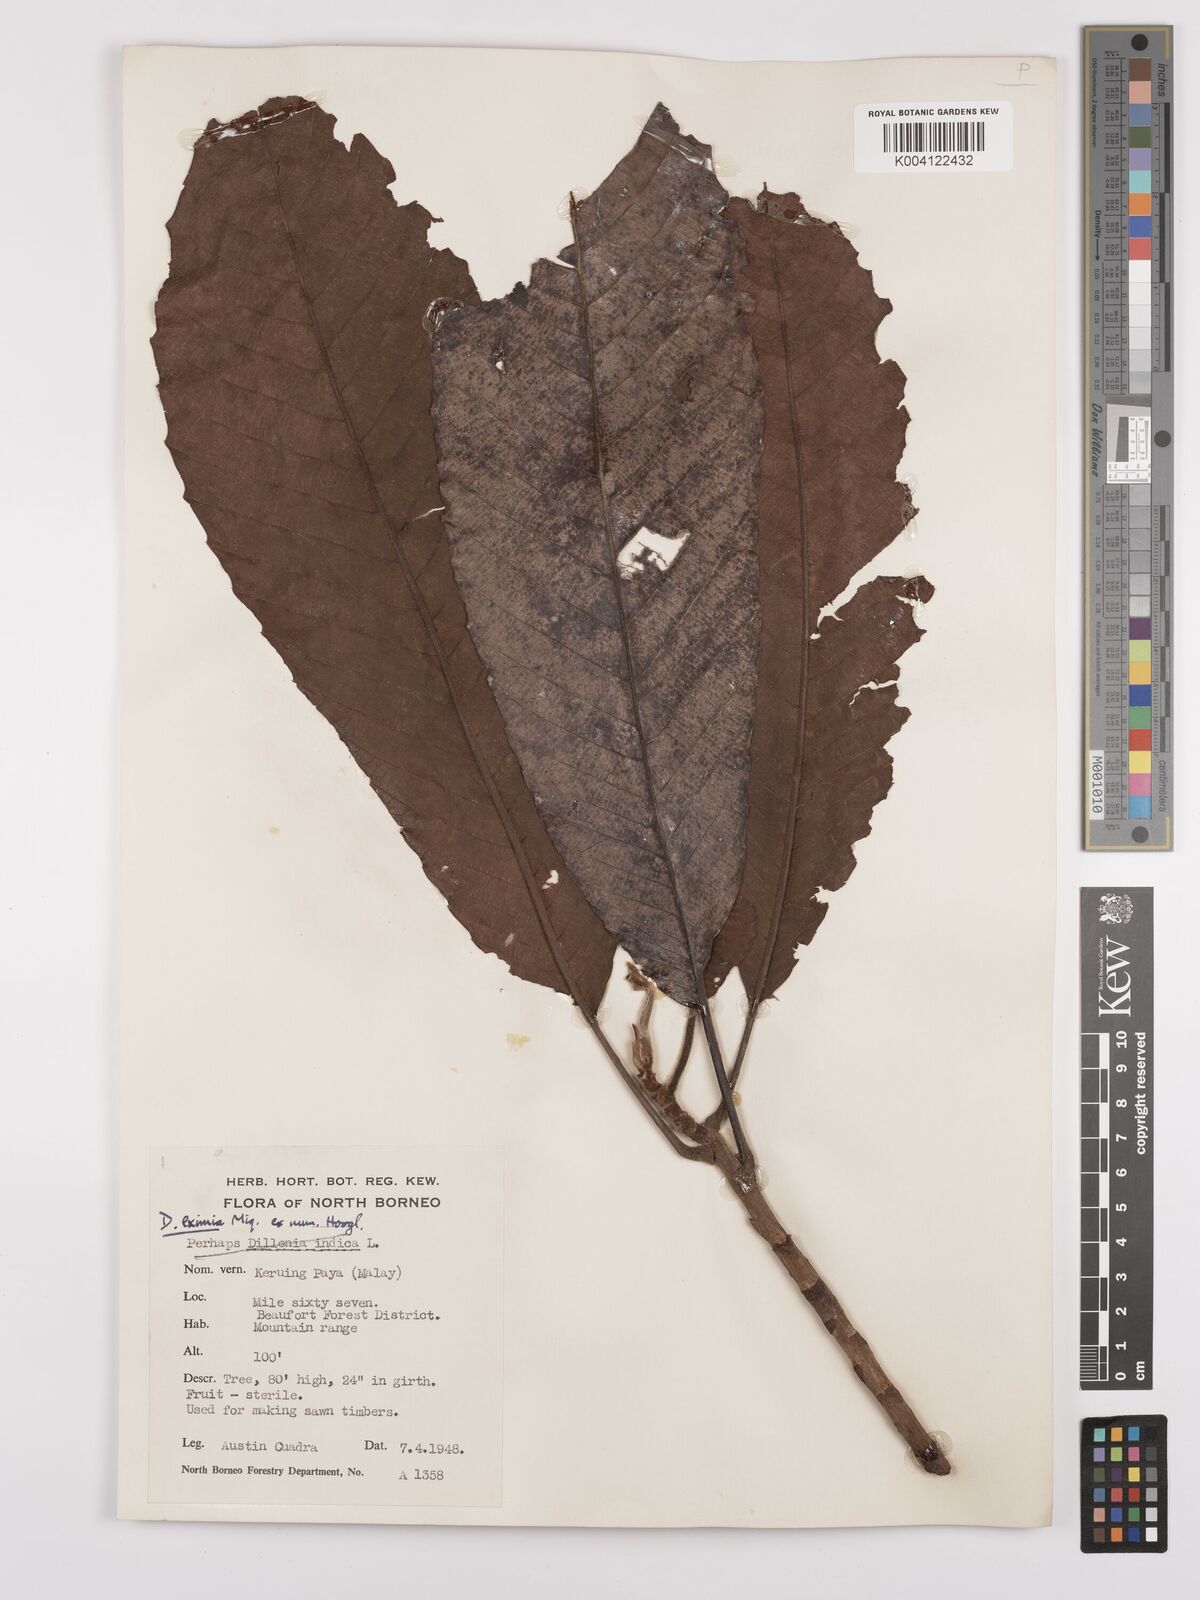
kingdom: Plantae
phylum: Tracheophyta
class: Magnoliopsida
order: Dilleniales
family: Dilleniaceae
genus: Dillenia
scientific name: Dillenia grandifolia
